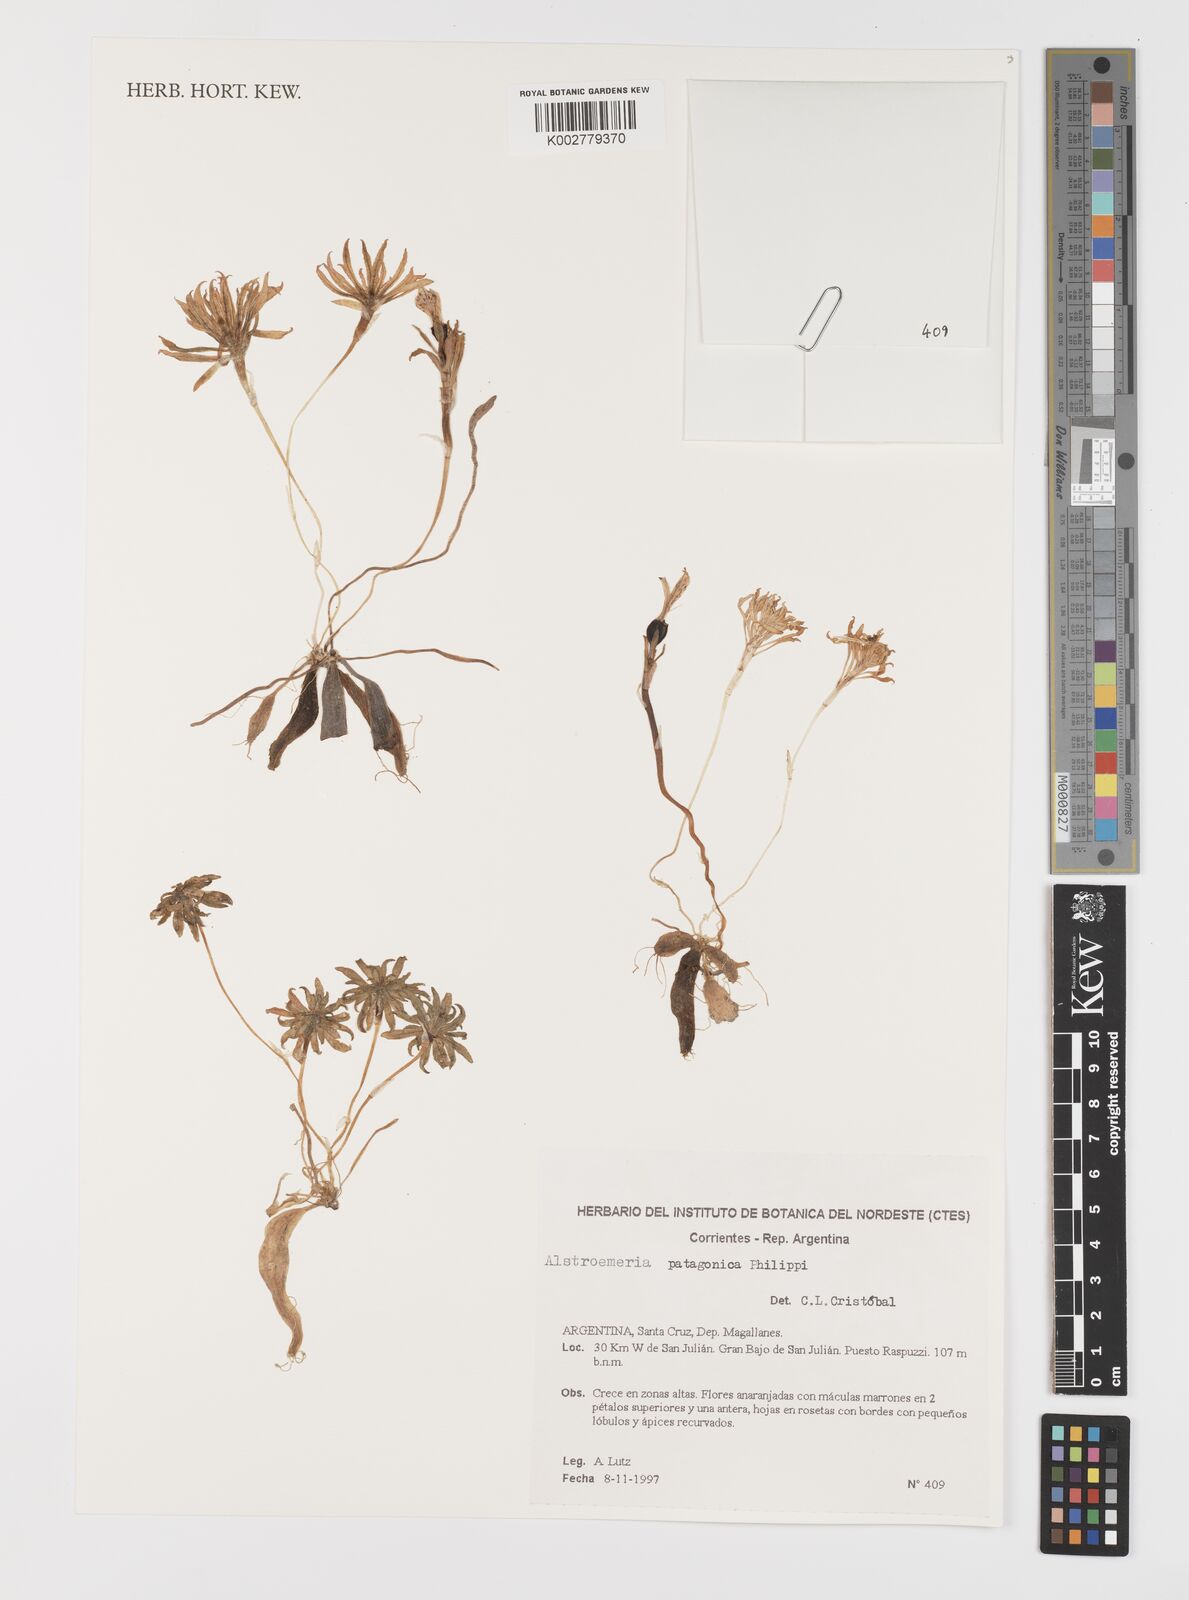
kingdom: Plantae
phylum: Tracheophyta
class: Liliopsida
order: Liliales
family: Alstroemeriaceae
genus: Alstroemeria
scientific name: Alstroemeria patagonica
